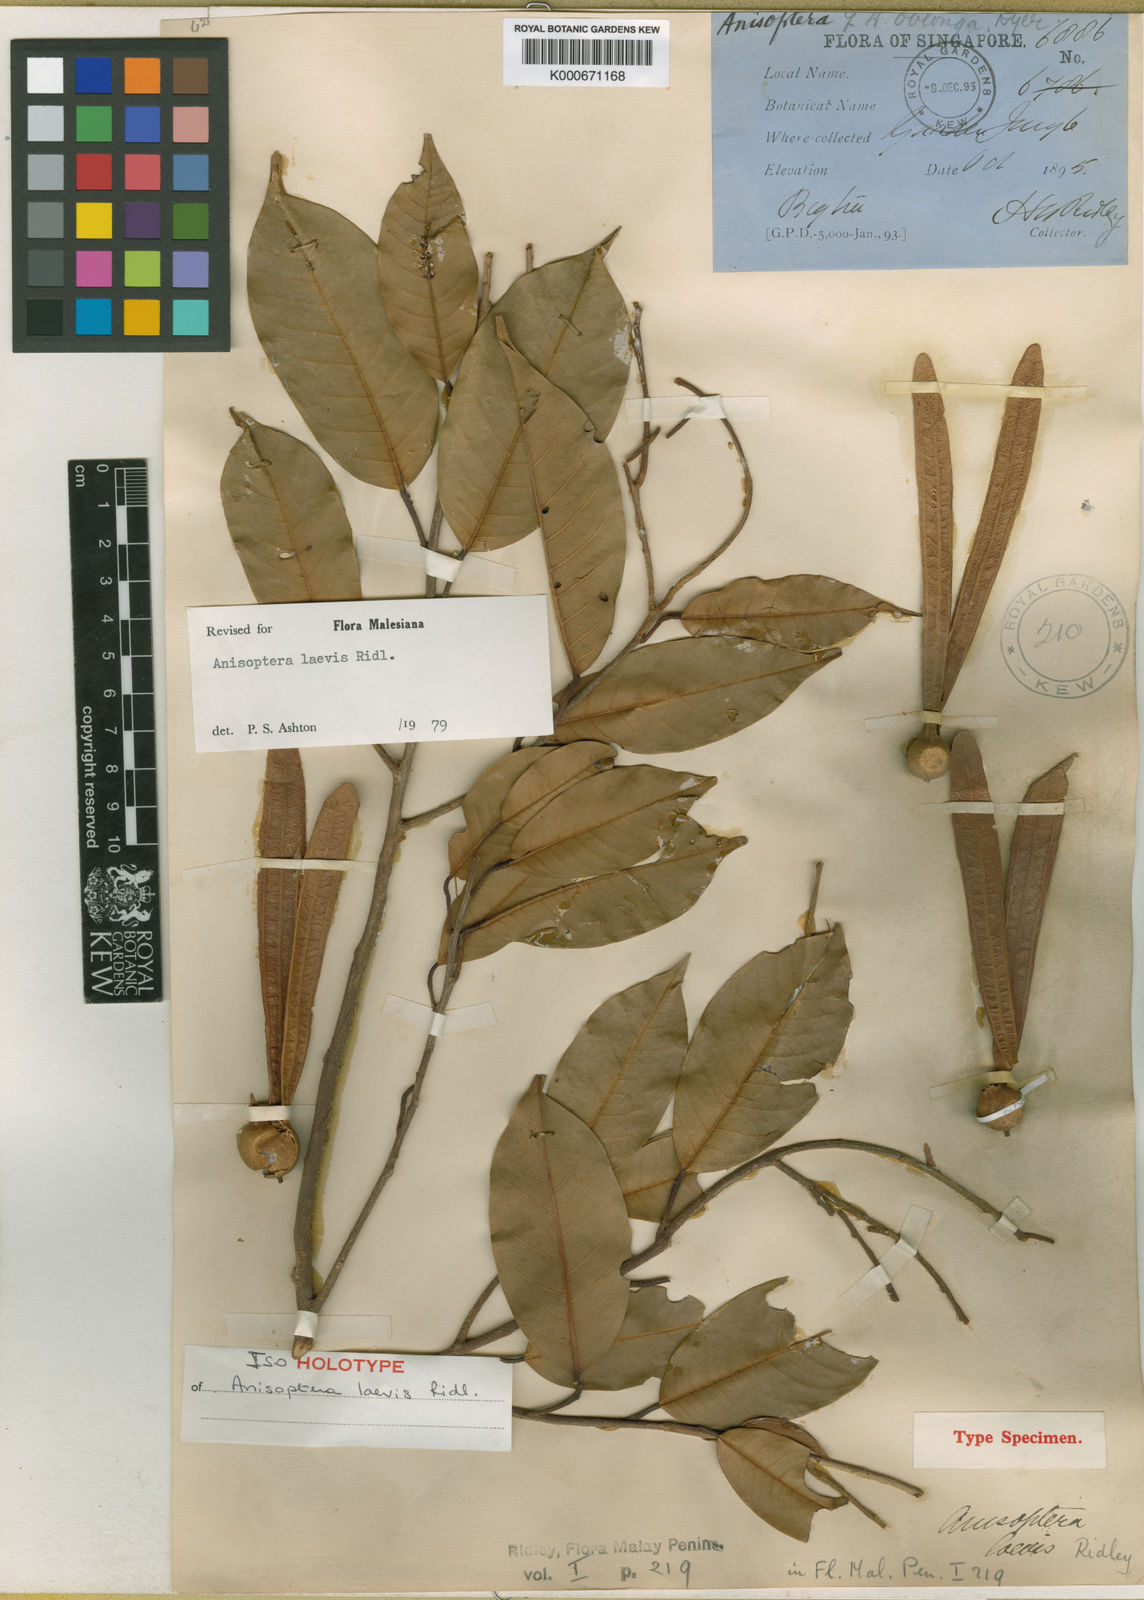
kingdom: Plantae
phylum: Tracheophyta
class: Magnoliopsida
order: Malvales
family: Dipterocarpaceae
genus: Anisoptera
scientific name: Anisoptera laevis
